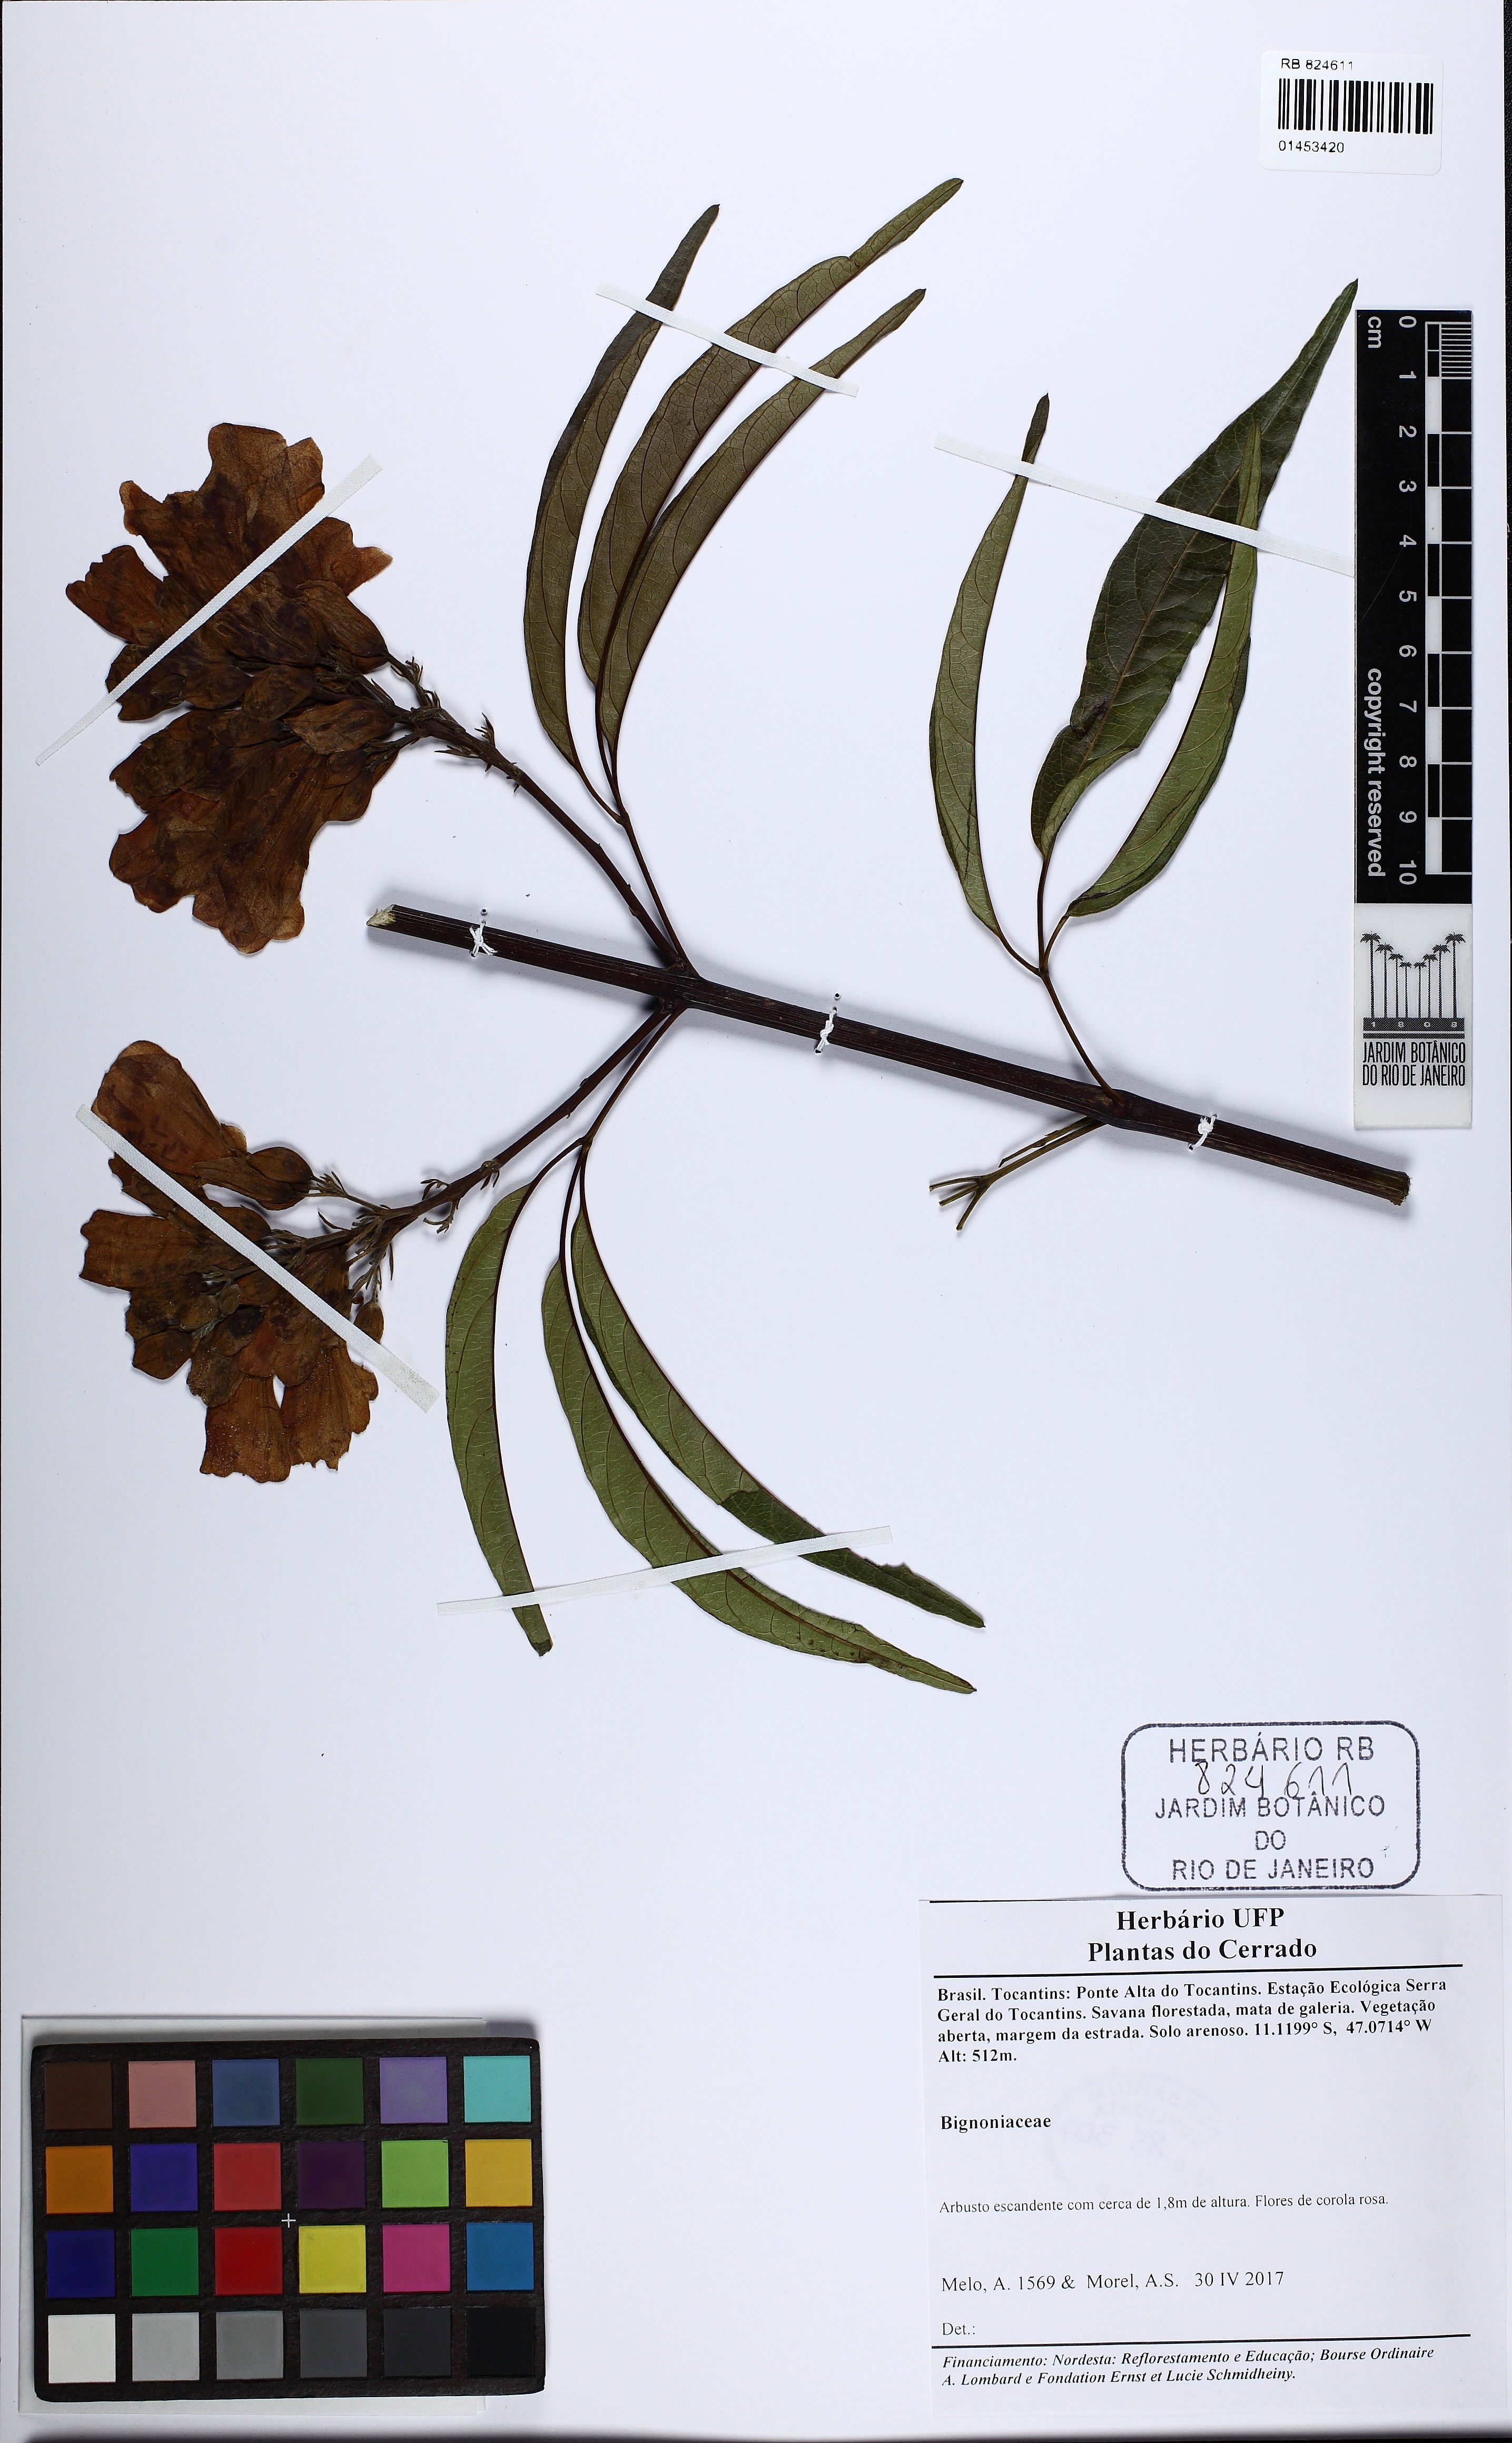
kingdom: Plantae
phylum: Tracheophyta
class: Magnoliopsida
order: Lamiales
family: Bignoniaceae
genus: Cuspidaria
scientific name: Cuspidaria pulchra
